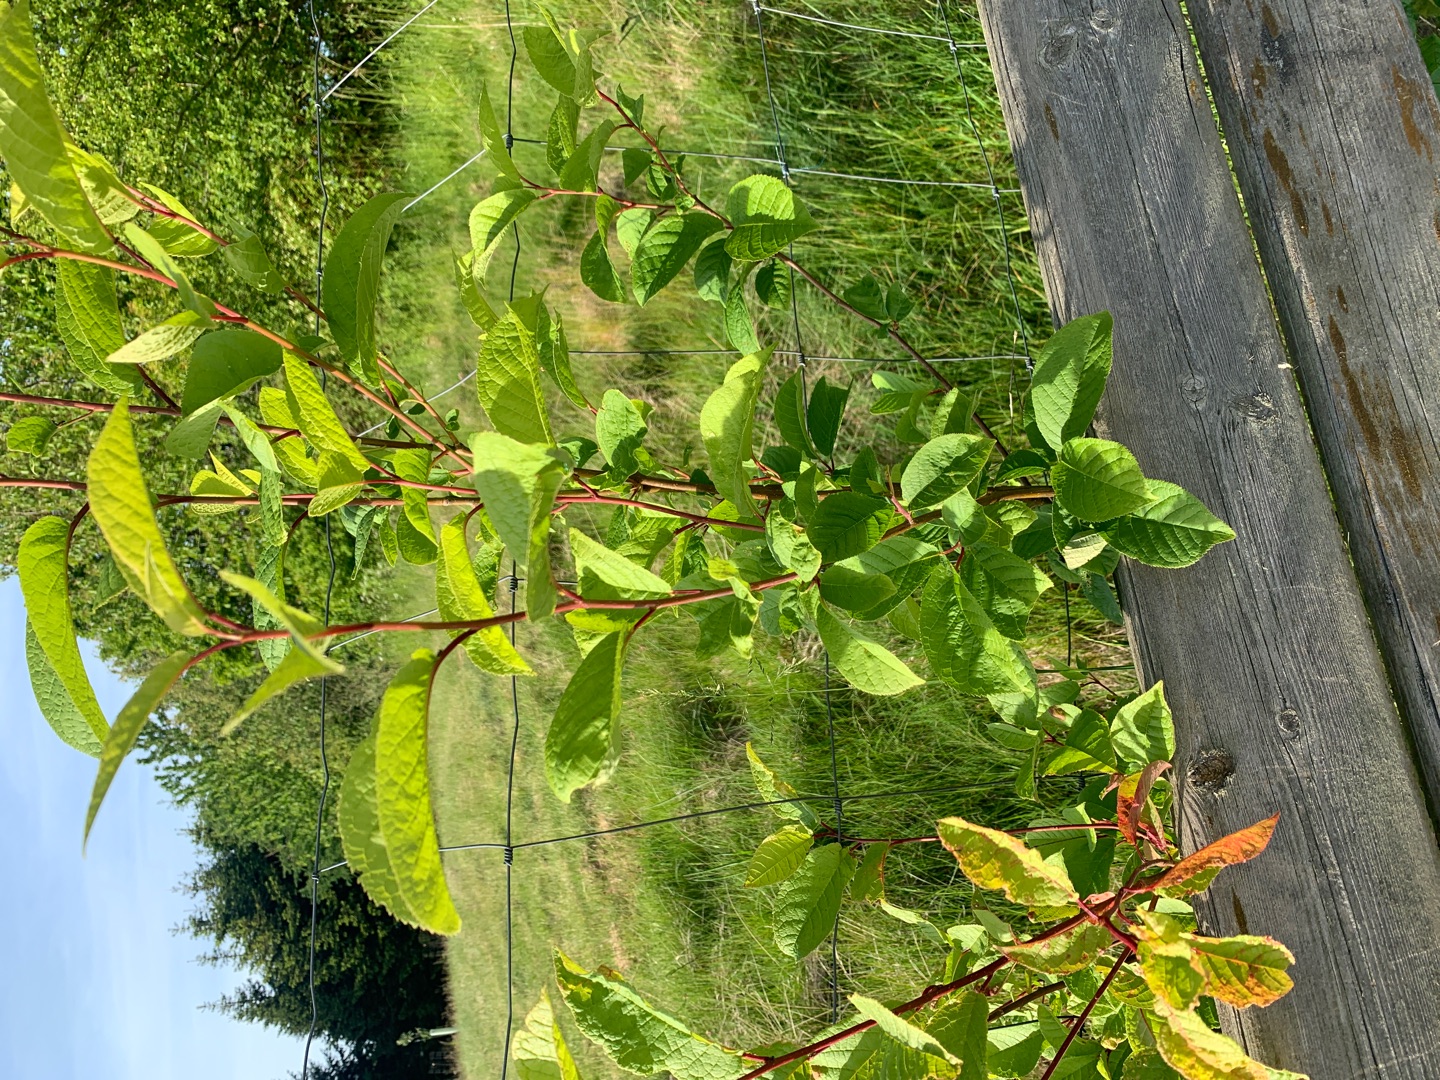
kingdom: Plantae
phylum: Tracheophyta
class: Magnoliopsida
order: Rosales
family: Rosaceae
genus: Prunus
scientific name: Prunus padus
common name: Almindelig hæg
